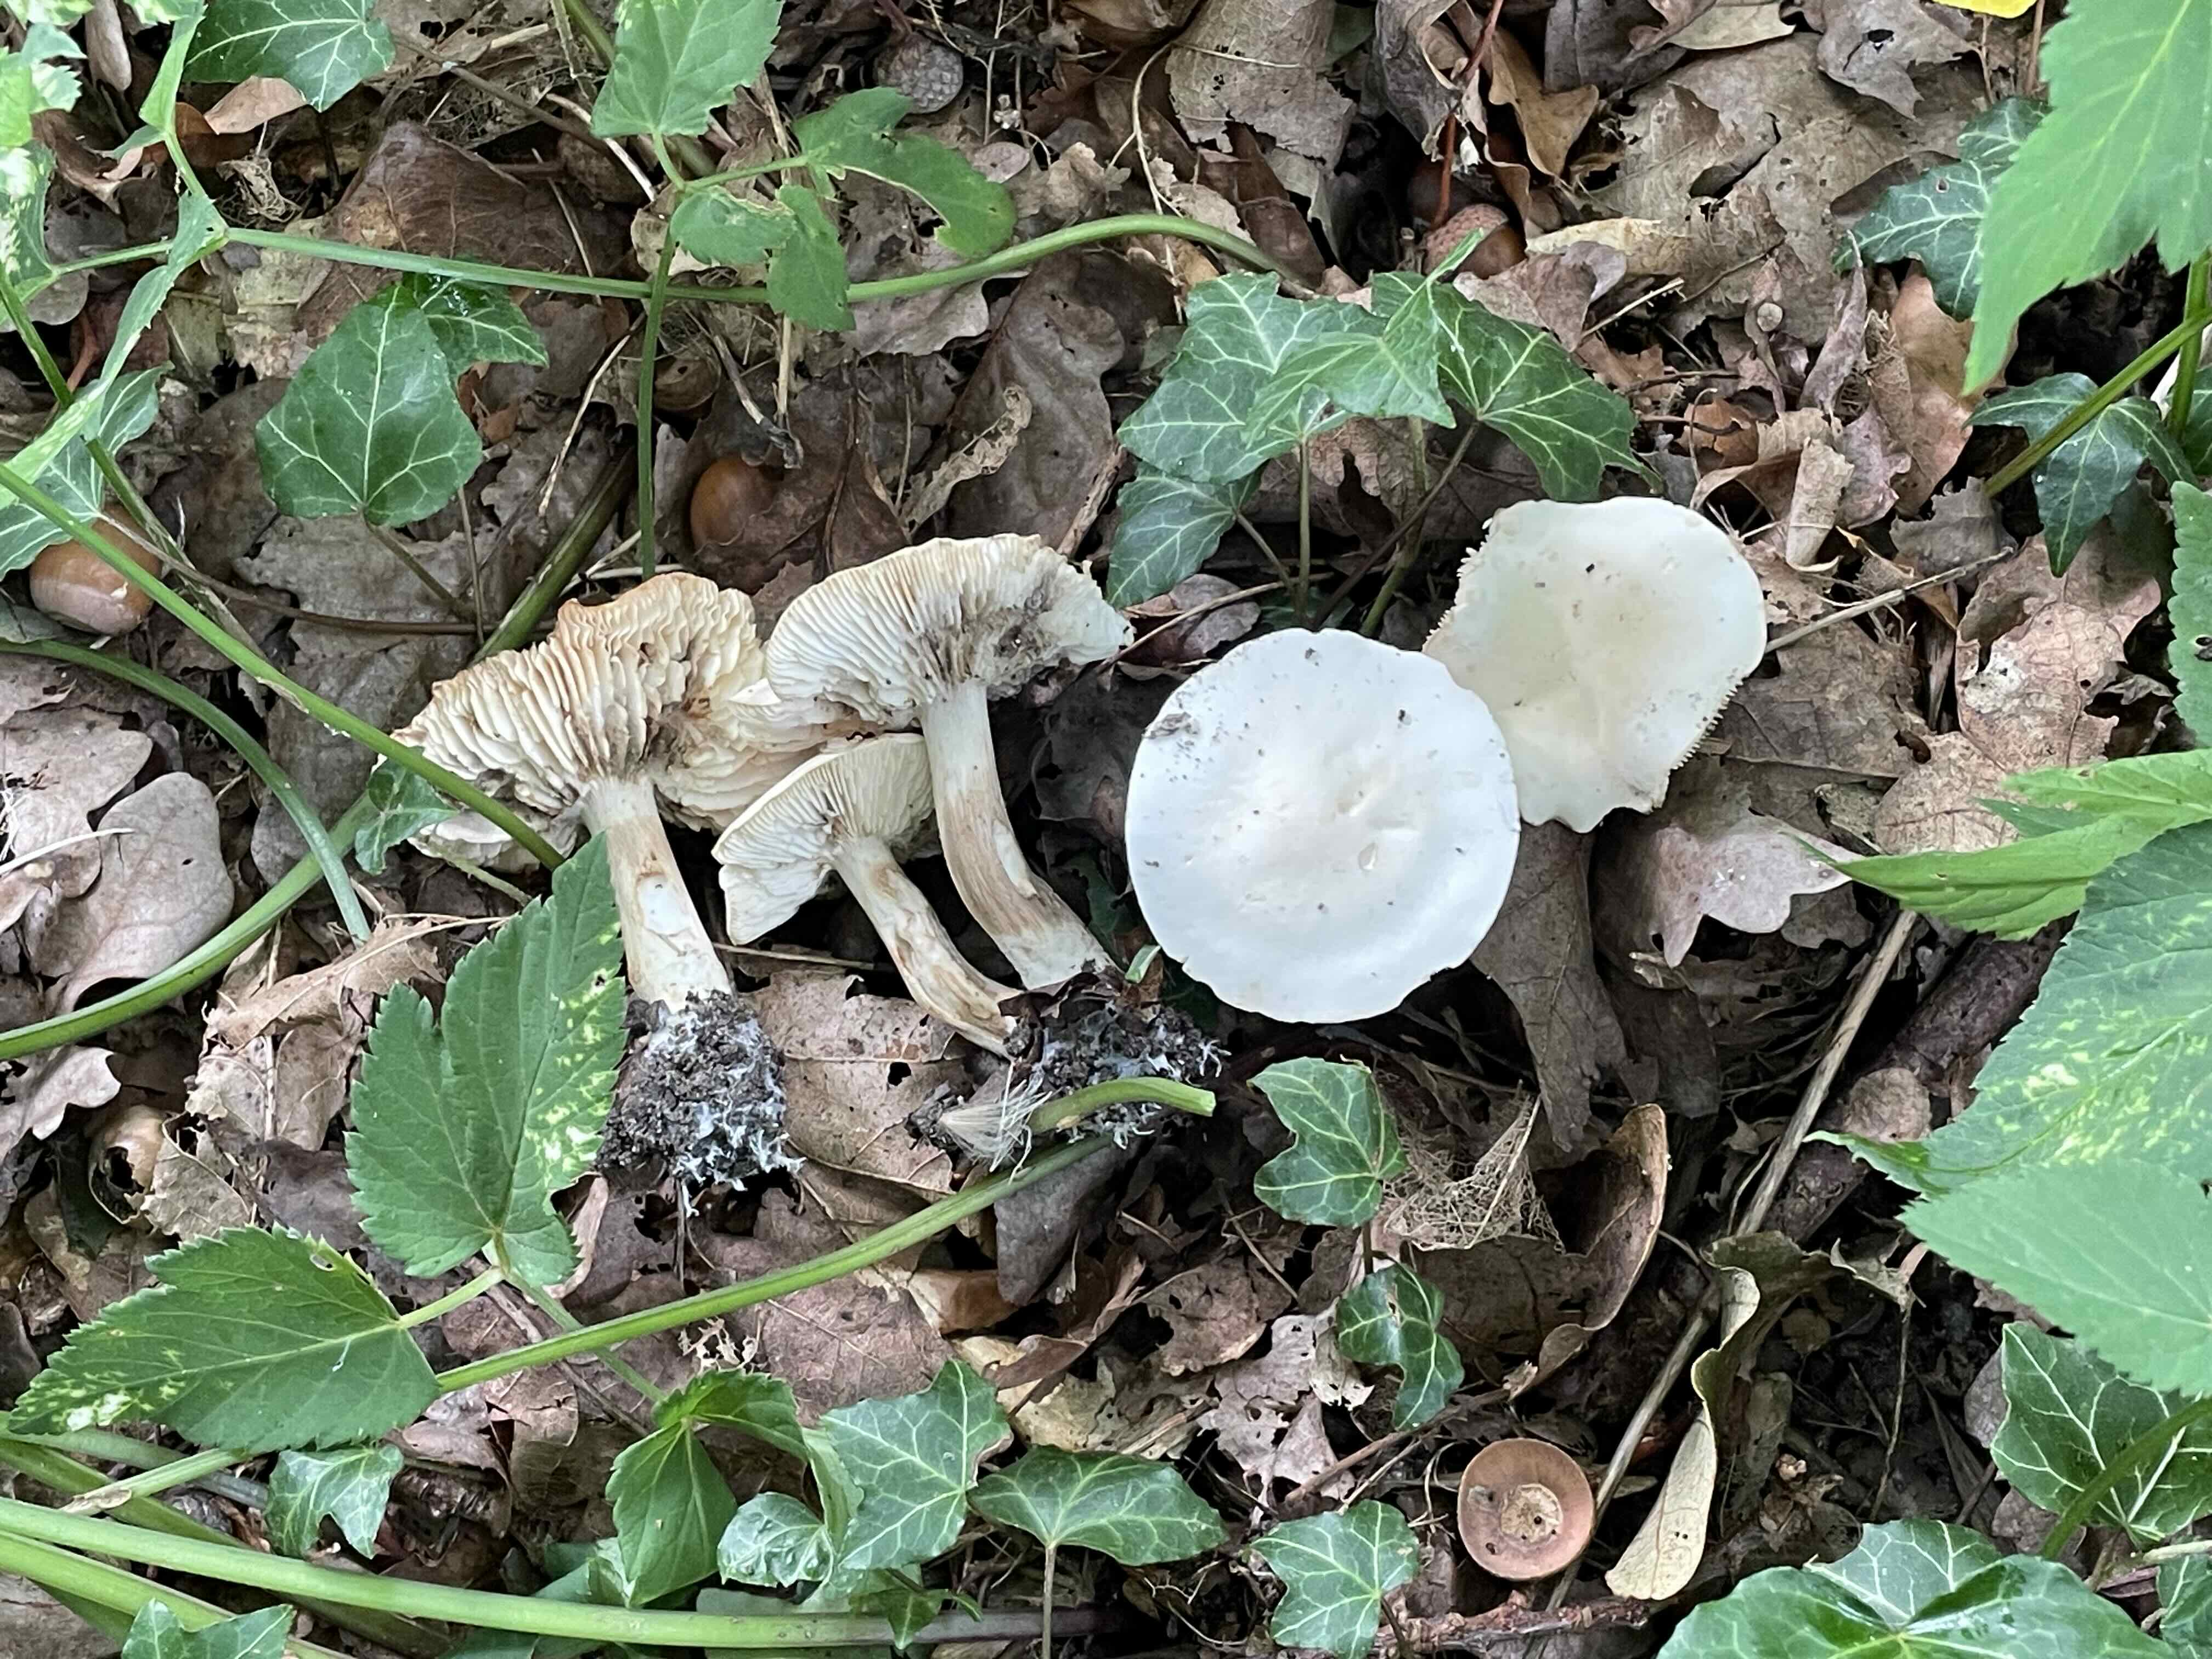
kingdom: Fungi
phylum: Basidiomycota
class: Agaricomycetes
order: Agaricales
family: Tricholomataceae
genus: Tricholoma
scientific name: Tricholoma album
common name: honning-ridderhat
